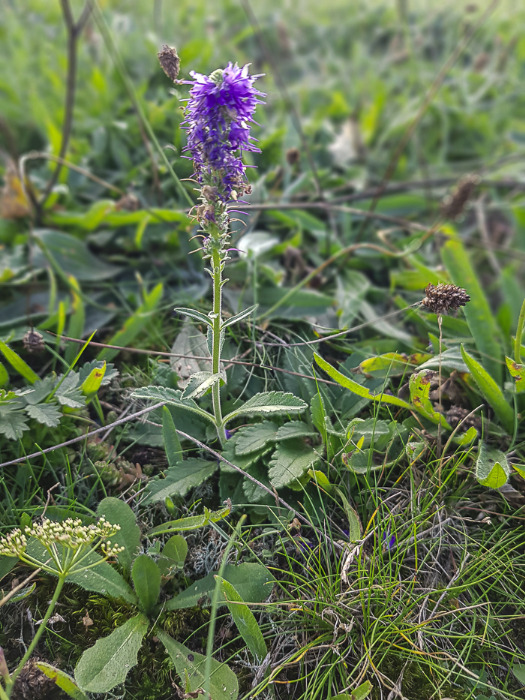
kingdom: Plantae
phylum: Tracheophyta
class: Magnoliopsida
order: Lamiales
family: Plantaginaceae
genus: Veronica
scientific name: Veronica spicata
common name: Aks-ærenpris
